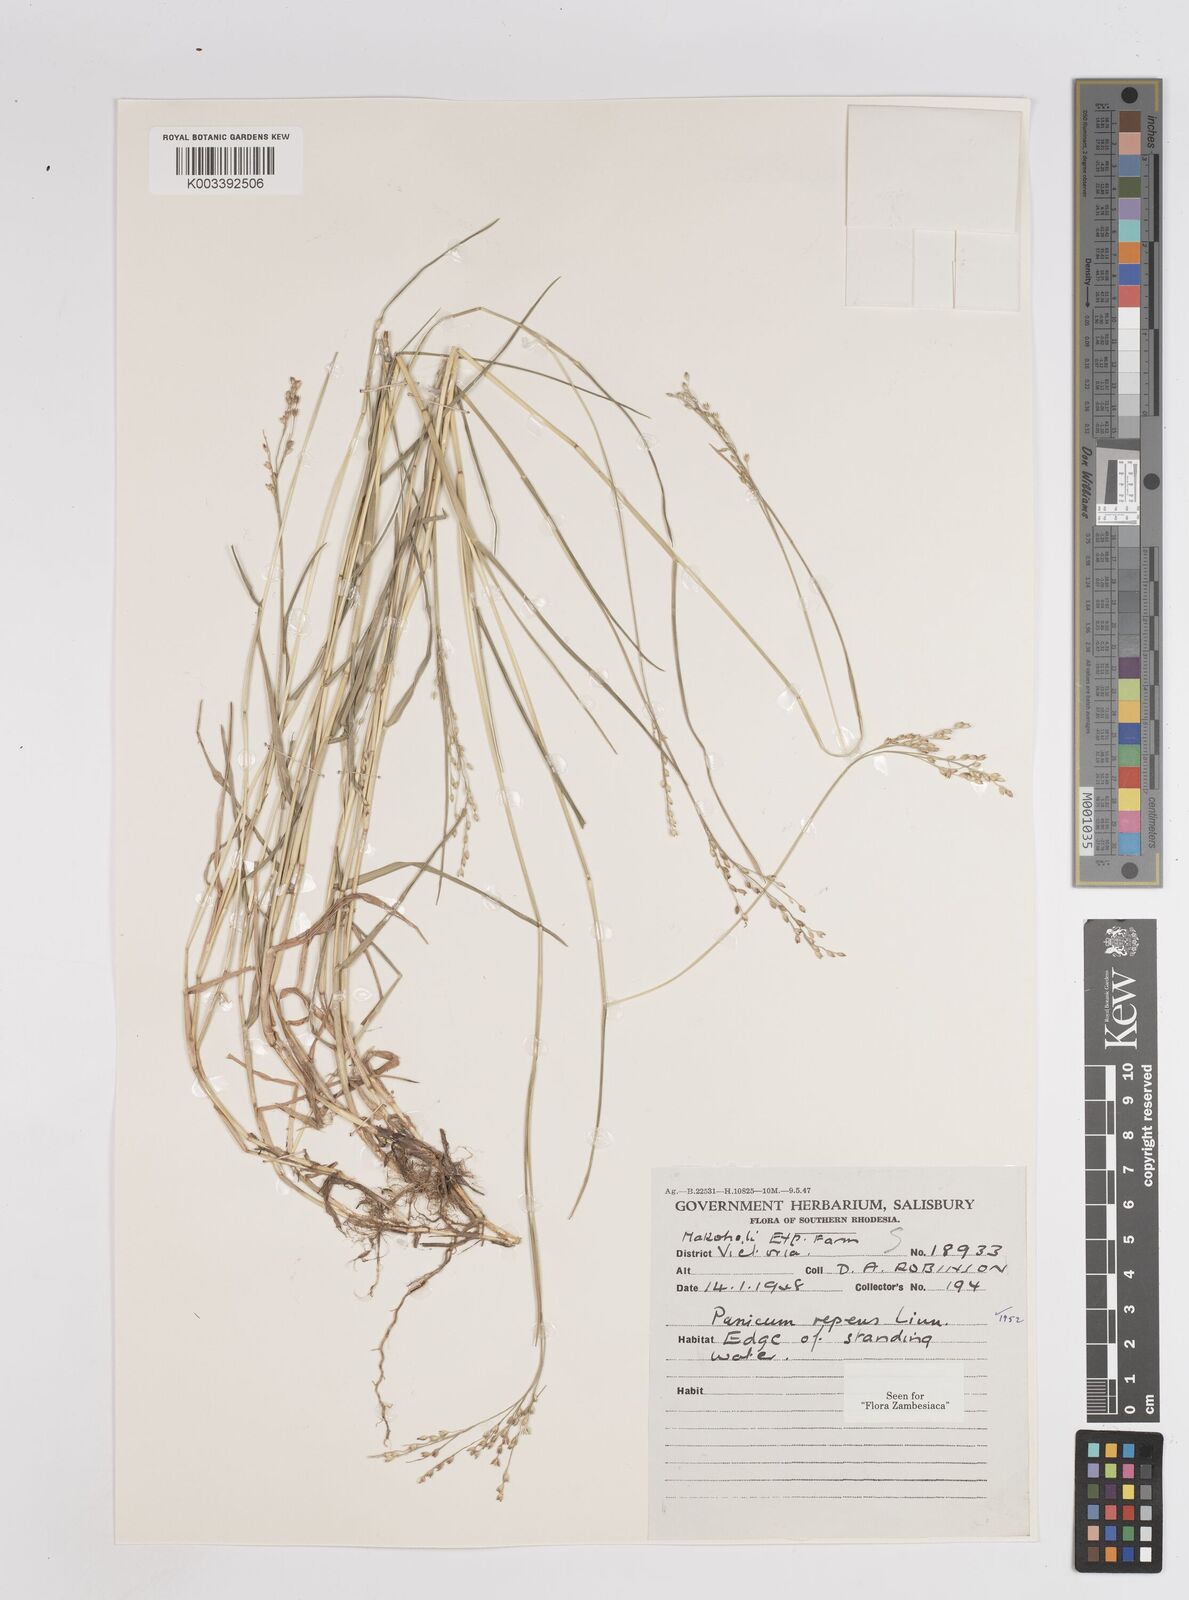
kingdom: Plantae
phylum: Tracheophyta
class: Liliopsida
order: Poales
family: Poaceae
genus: Panicum
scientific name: Panicum repens
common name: Torpedo grass
